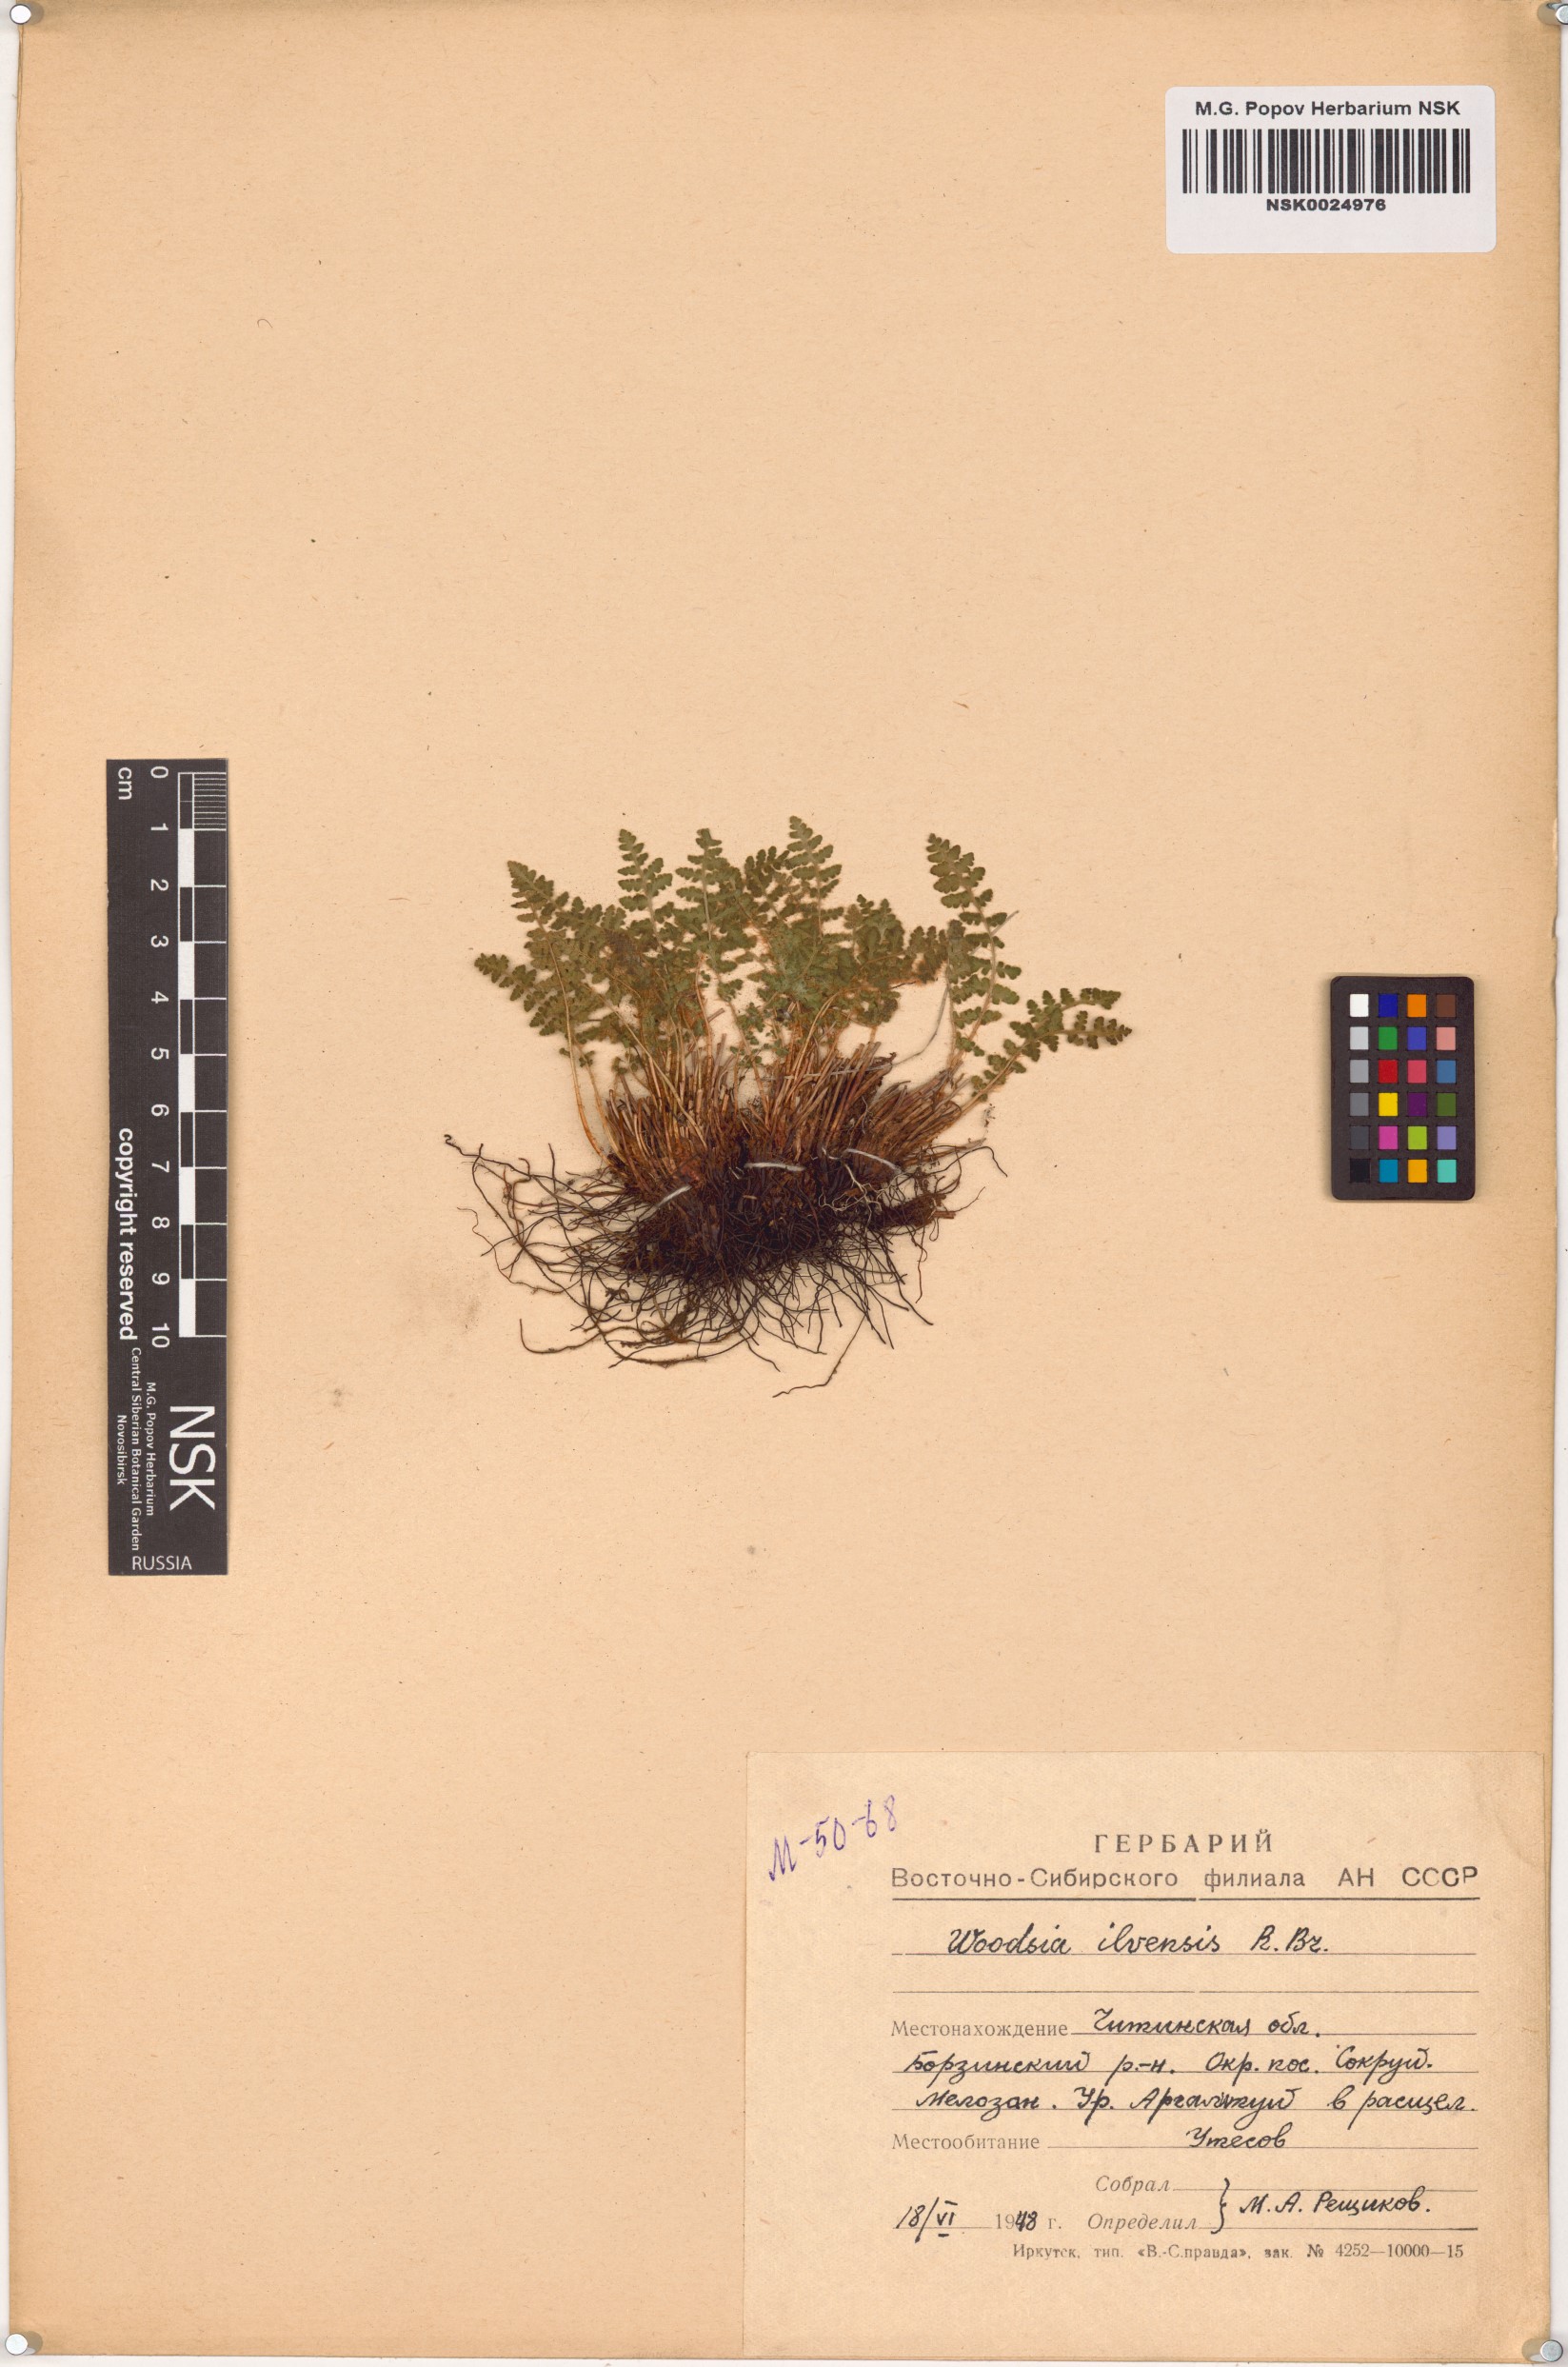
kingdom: Plantae
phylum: Tracheophyta
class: Polypodiopsida
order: Polypodiales
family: Woodsiaceae
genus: Woodsia
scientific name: Woodsia ilvensis
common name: Fragrant woodsia
